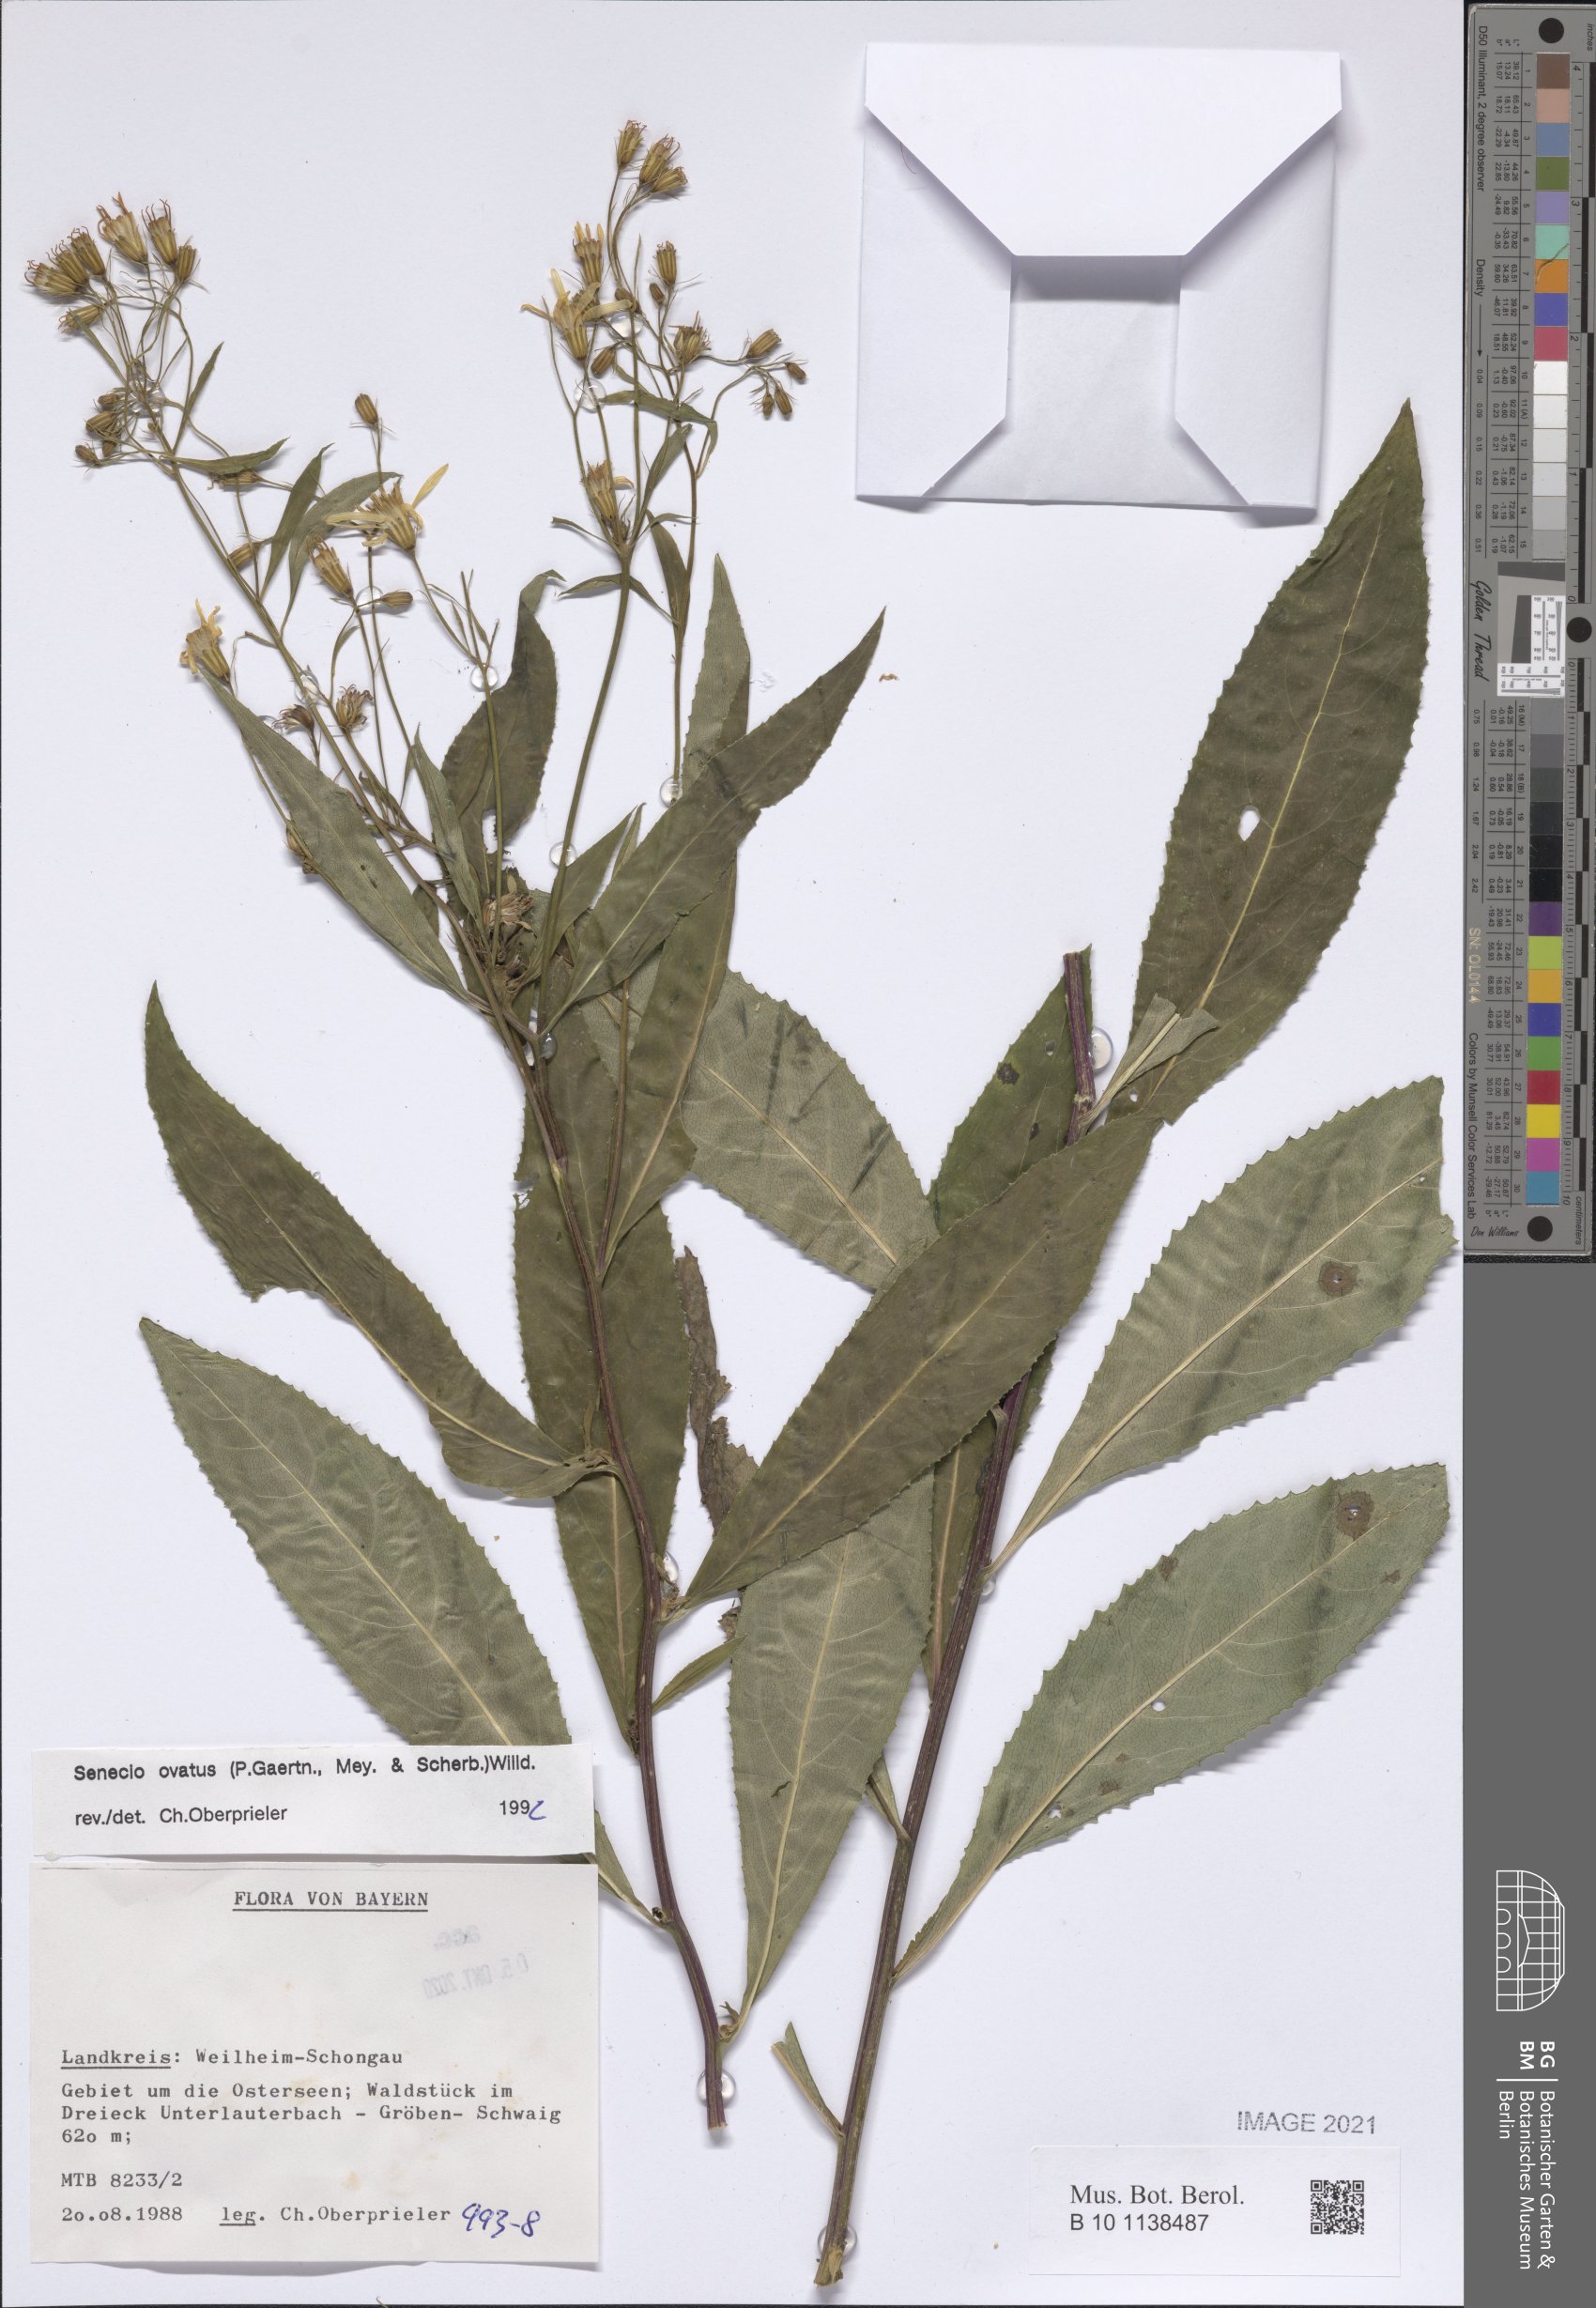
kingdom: Plantae
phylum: Tracheophyta
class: Magnoliopsida
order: Asterales
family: Asteraceae
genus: Senecio
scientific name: Senecio ovatus
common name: Wood ragwort
